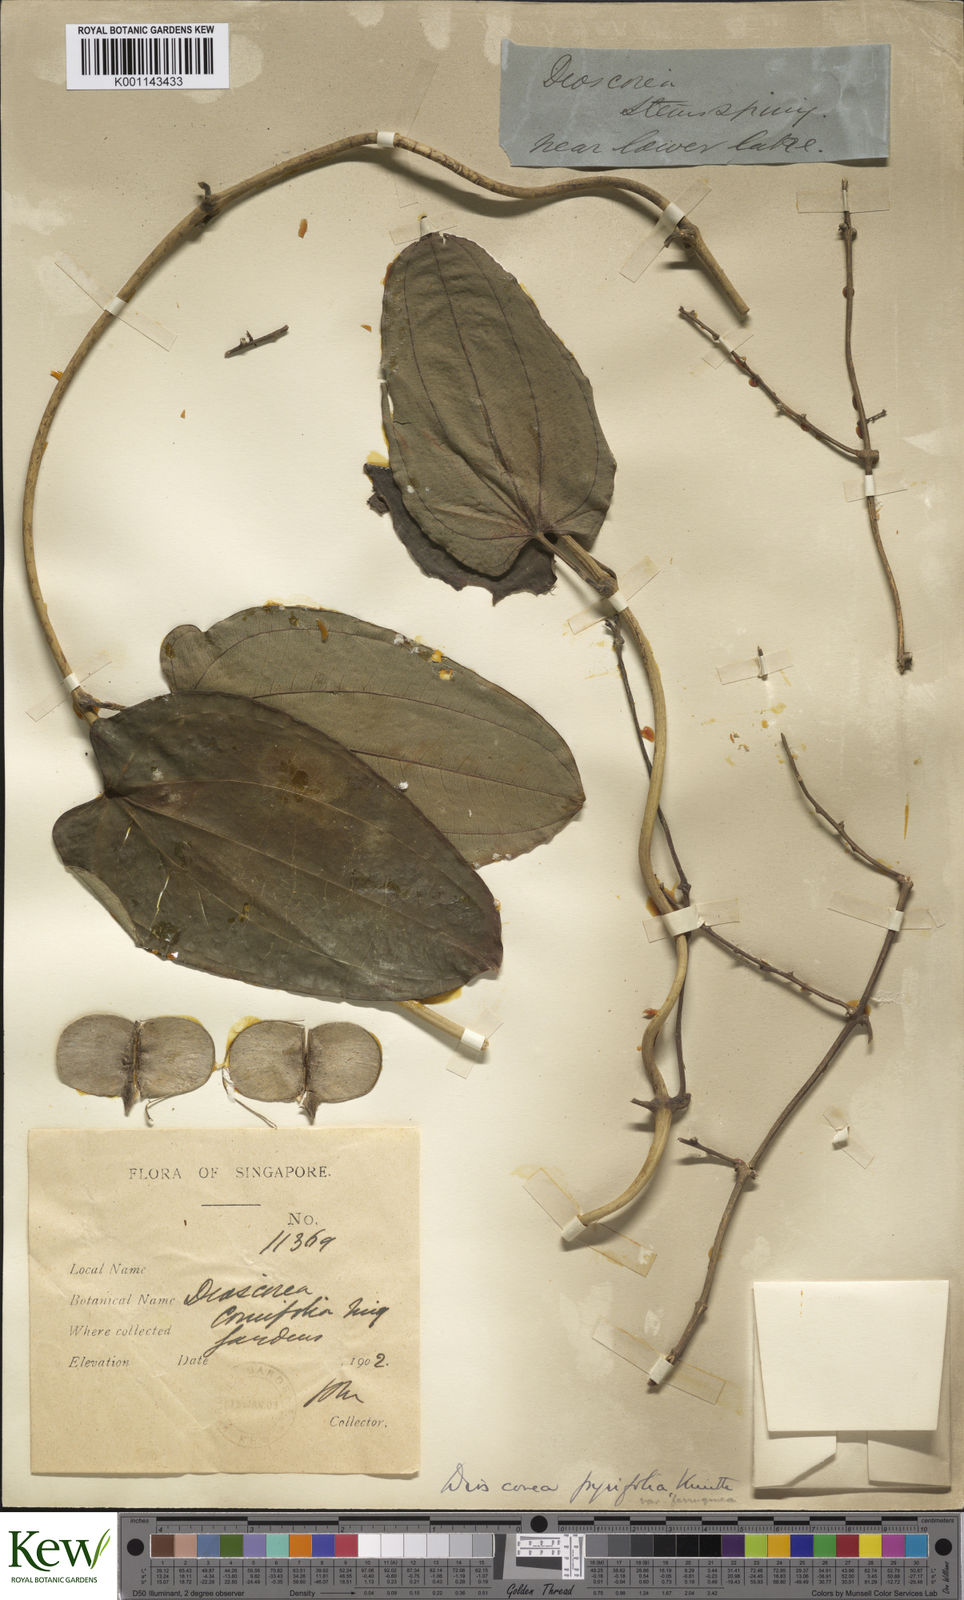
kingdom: Plantae
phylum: Tracheophyta
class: Liliopsida
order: Dioscoreales
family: Dioscoreaceae
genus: Dioscorea
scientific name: Dioscorea pyrifolia
